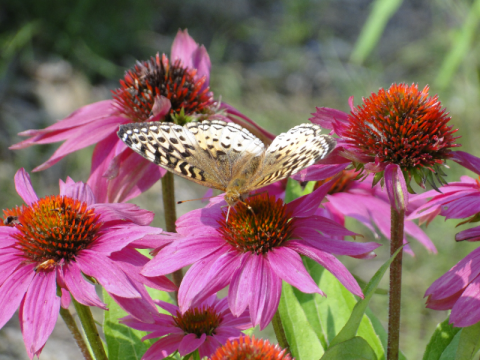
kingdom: Animalia
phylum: Arthropoda
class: Insecta
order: Lepidoptera
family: Nymphalidae
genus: Speyeria
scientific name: Speyeria cybele
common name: Great Spangled Fritillary
